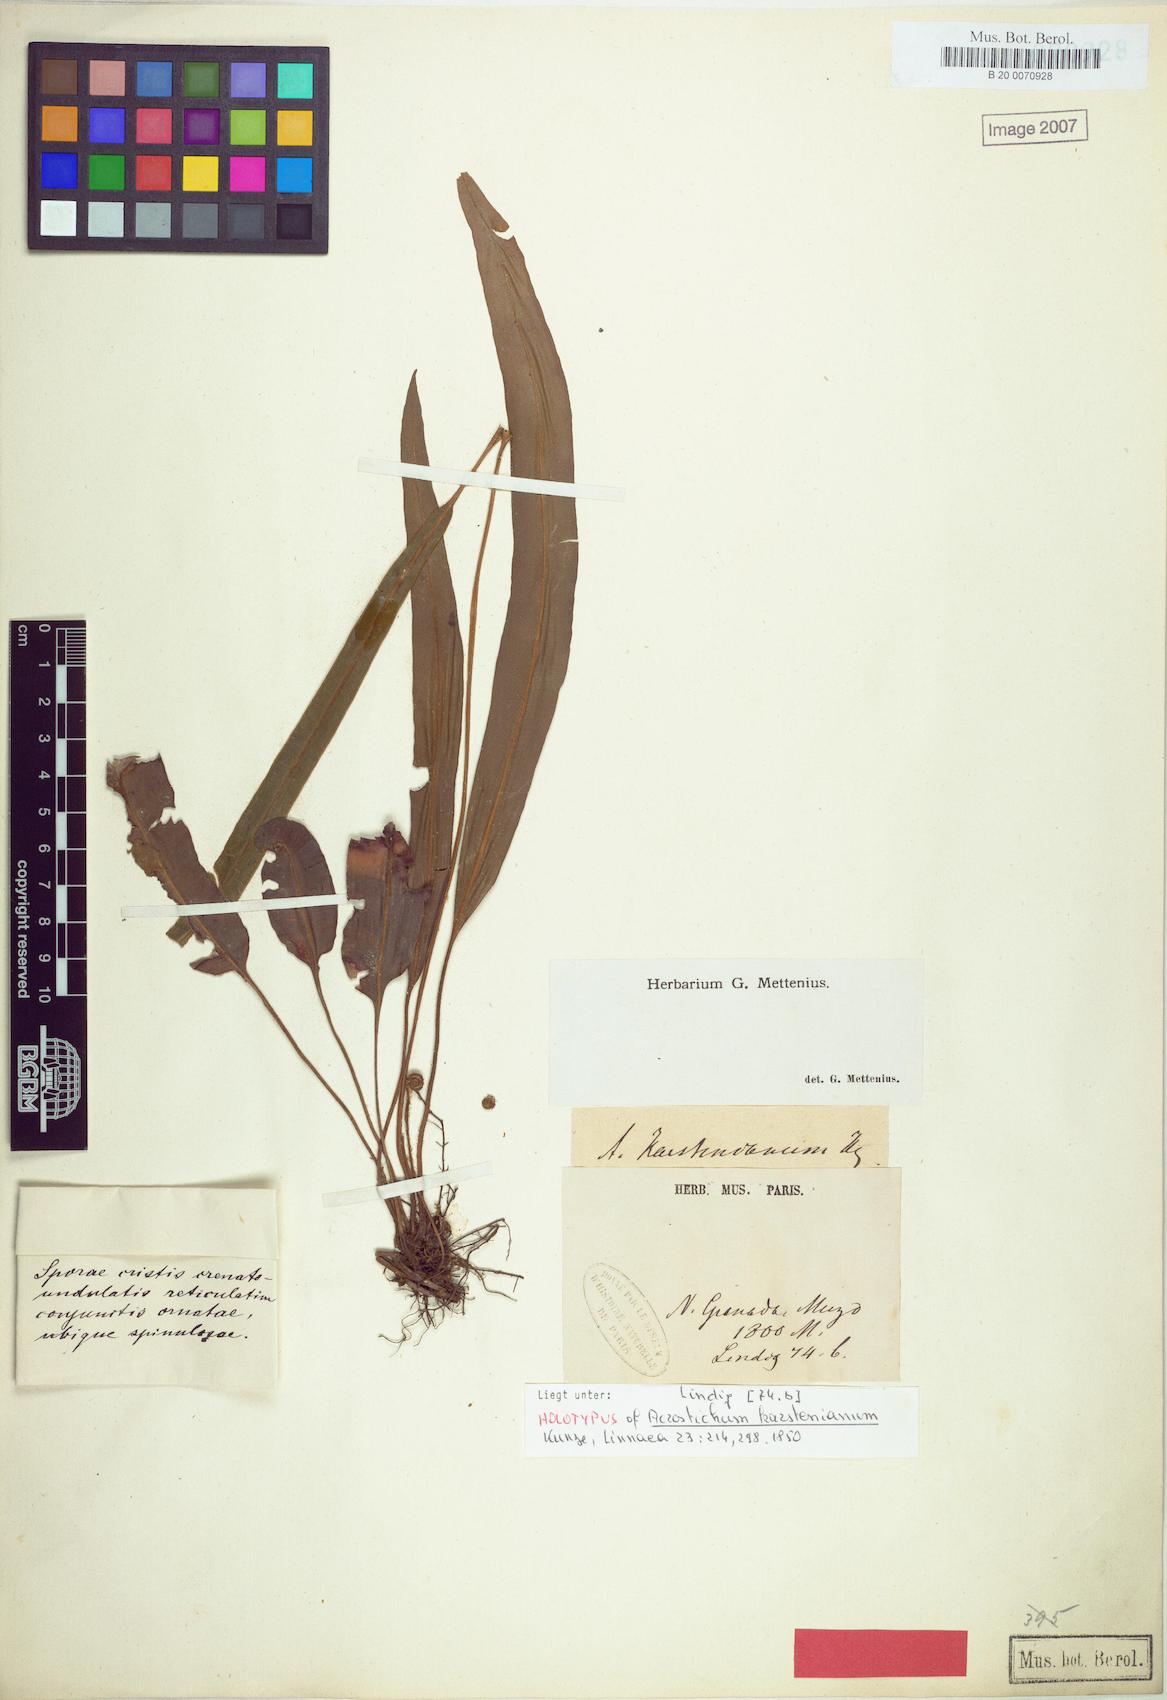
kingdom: Plantae
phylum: Tracheophyta
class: Polypodiopsida
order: Polypodiales
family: Dryopteridaceae
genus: Elaphoglossum
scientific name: Elaphoglossum petiolatum
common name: Graceful tonguefern
